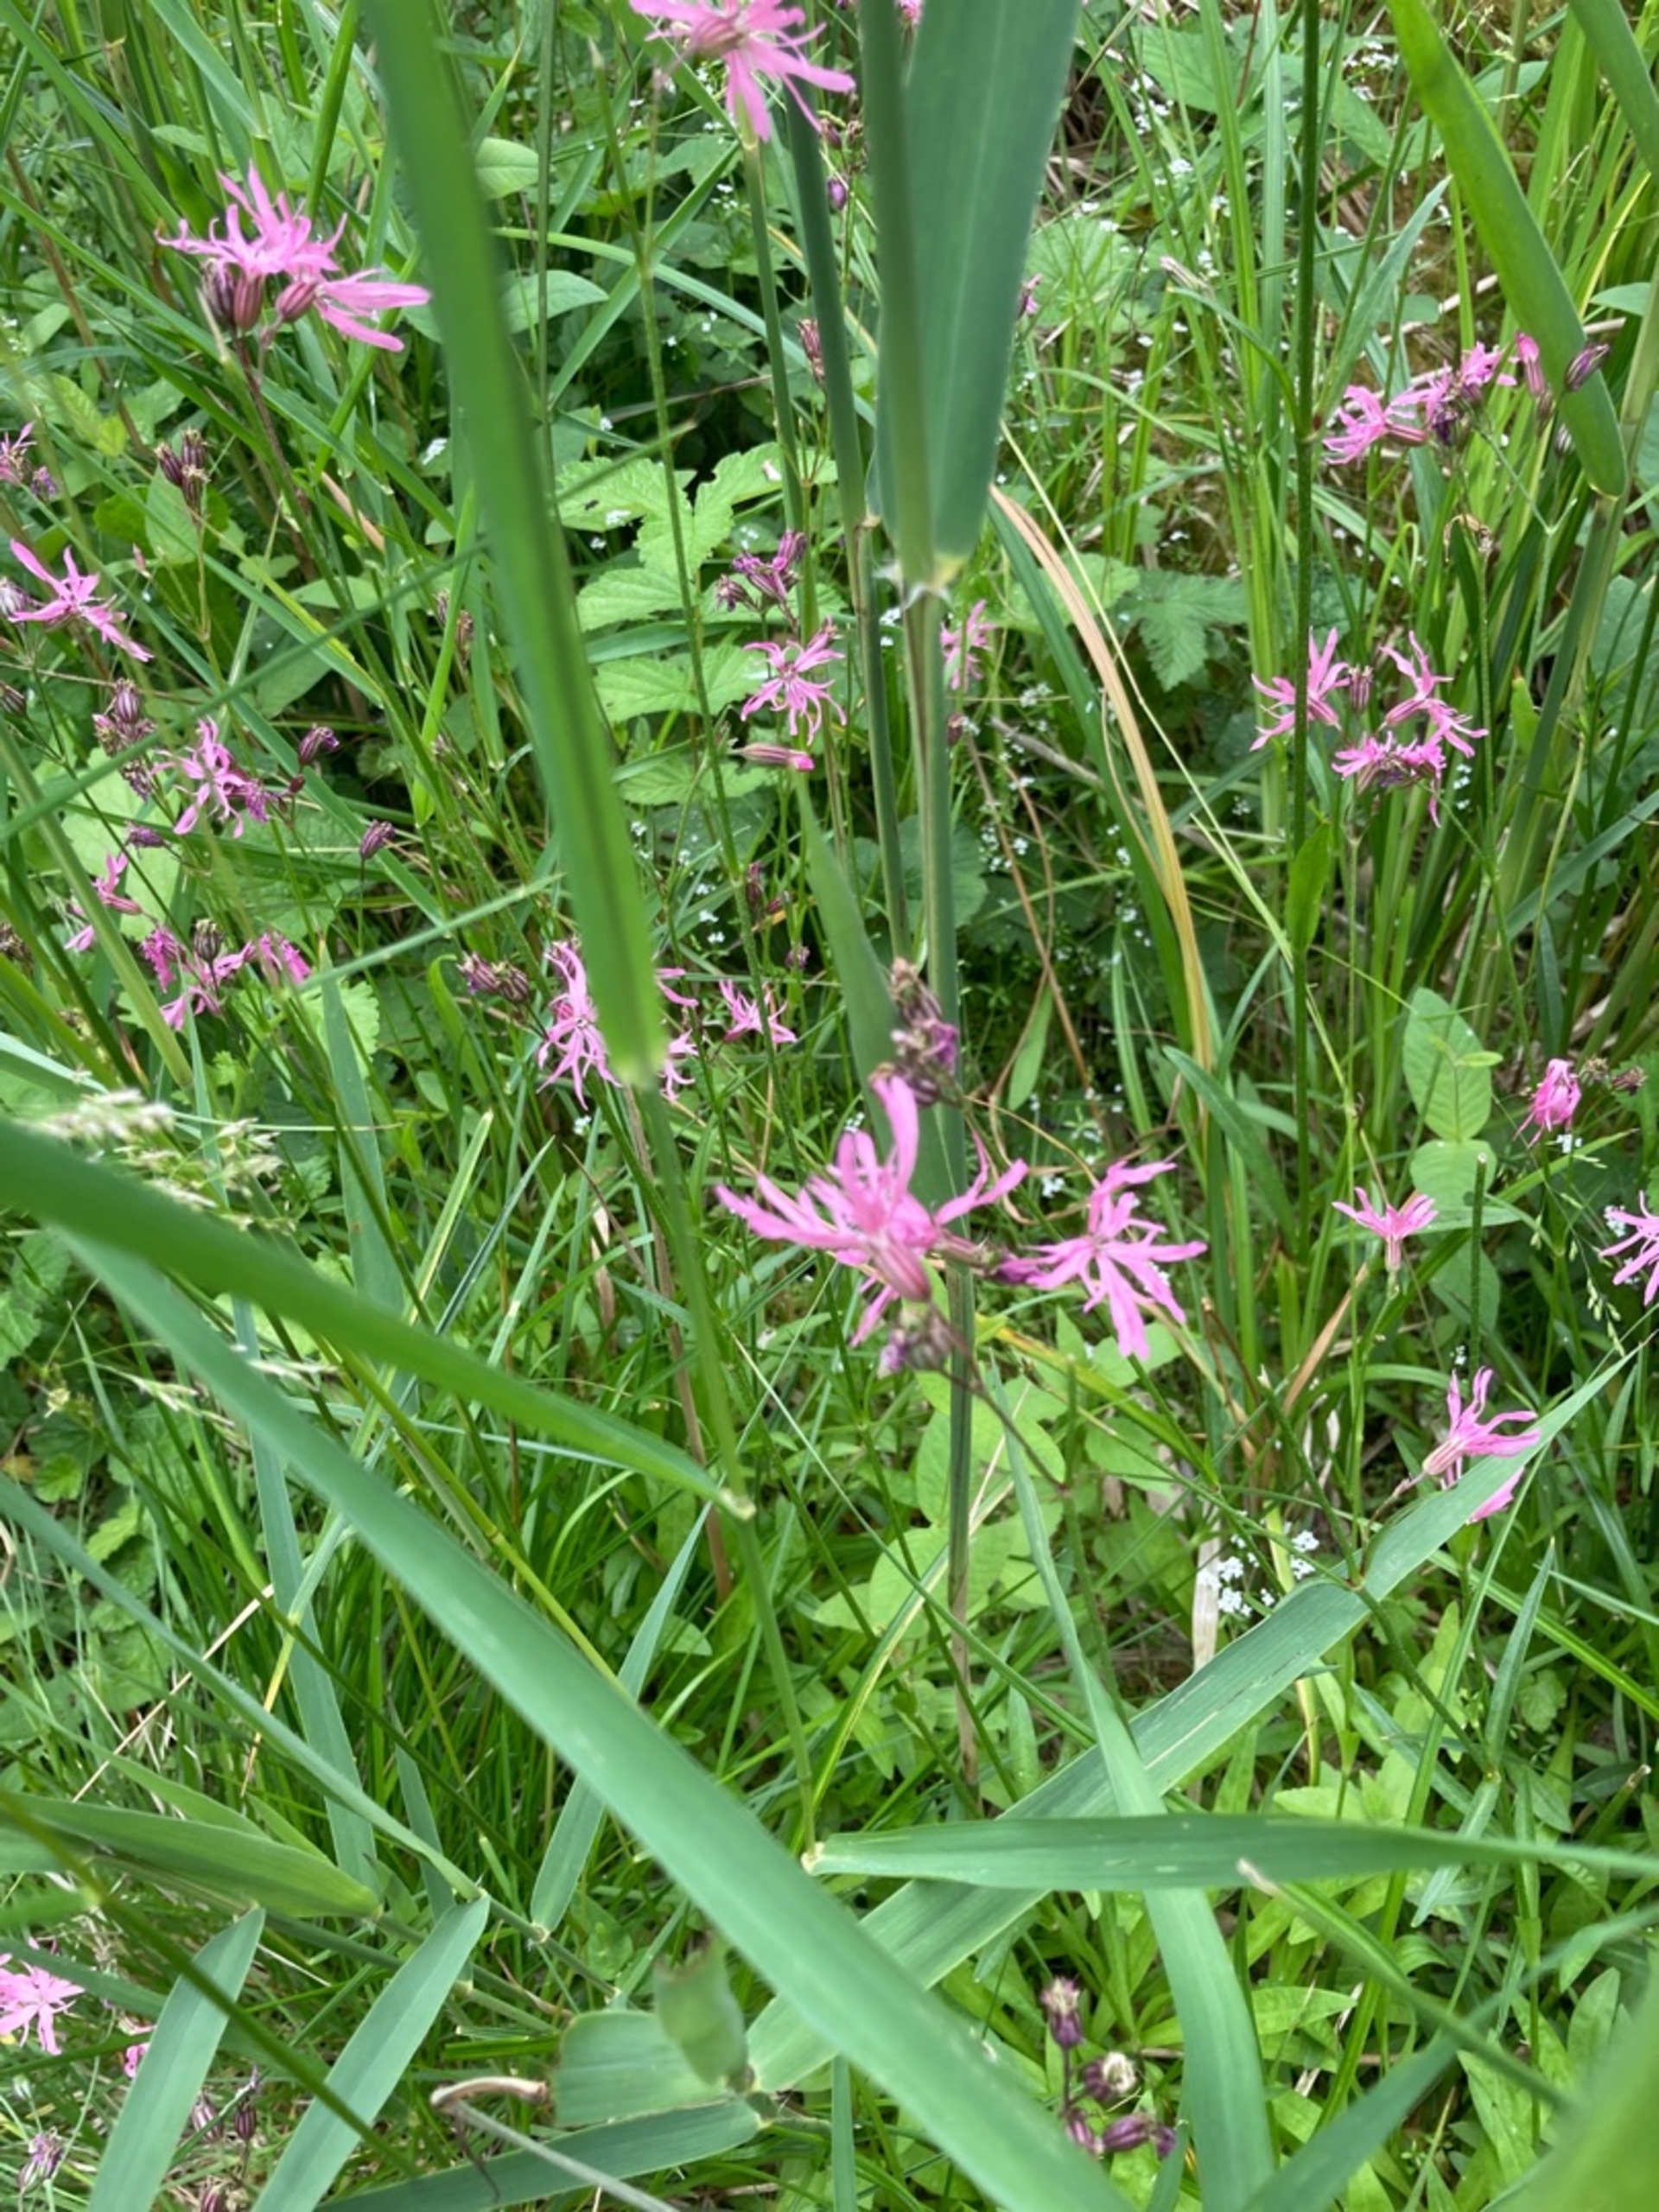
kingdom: Plantae
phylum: Tracheophyta
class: Magnoliopsida
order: Caryophyllales
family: Caryophyllaceae
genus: Silene
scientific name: Silene flos-cuculi
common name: Trævlekrone
